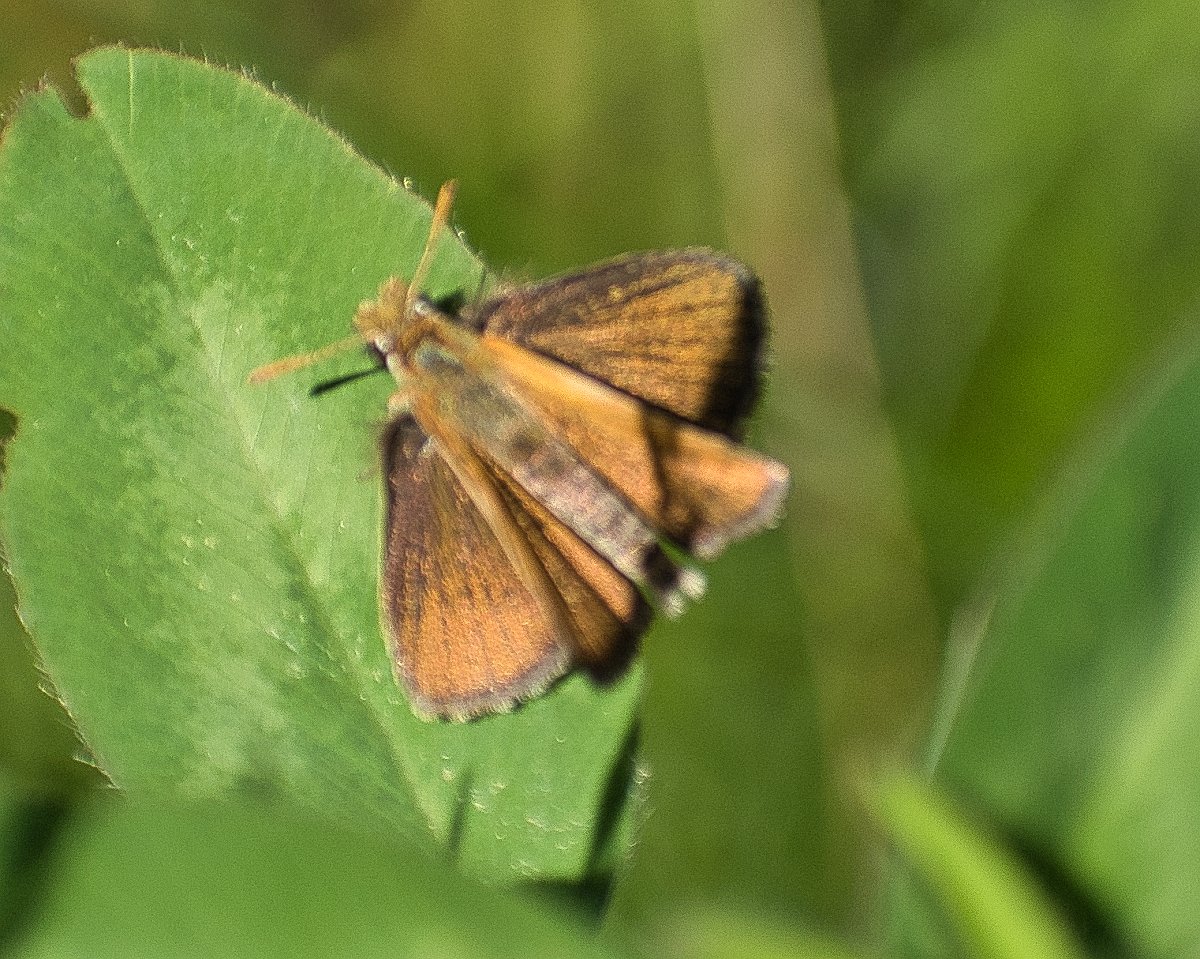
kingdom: Animalia
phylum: Arthropoda
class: Insecta
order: Lepidoptera
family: Hesperiidae
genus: Oarisma
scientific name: Oarisma garita
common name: Garita Skipperling
